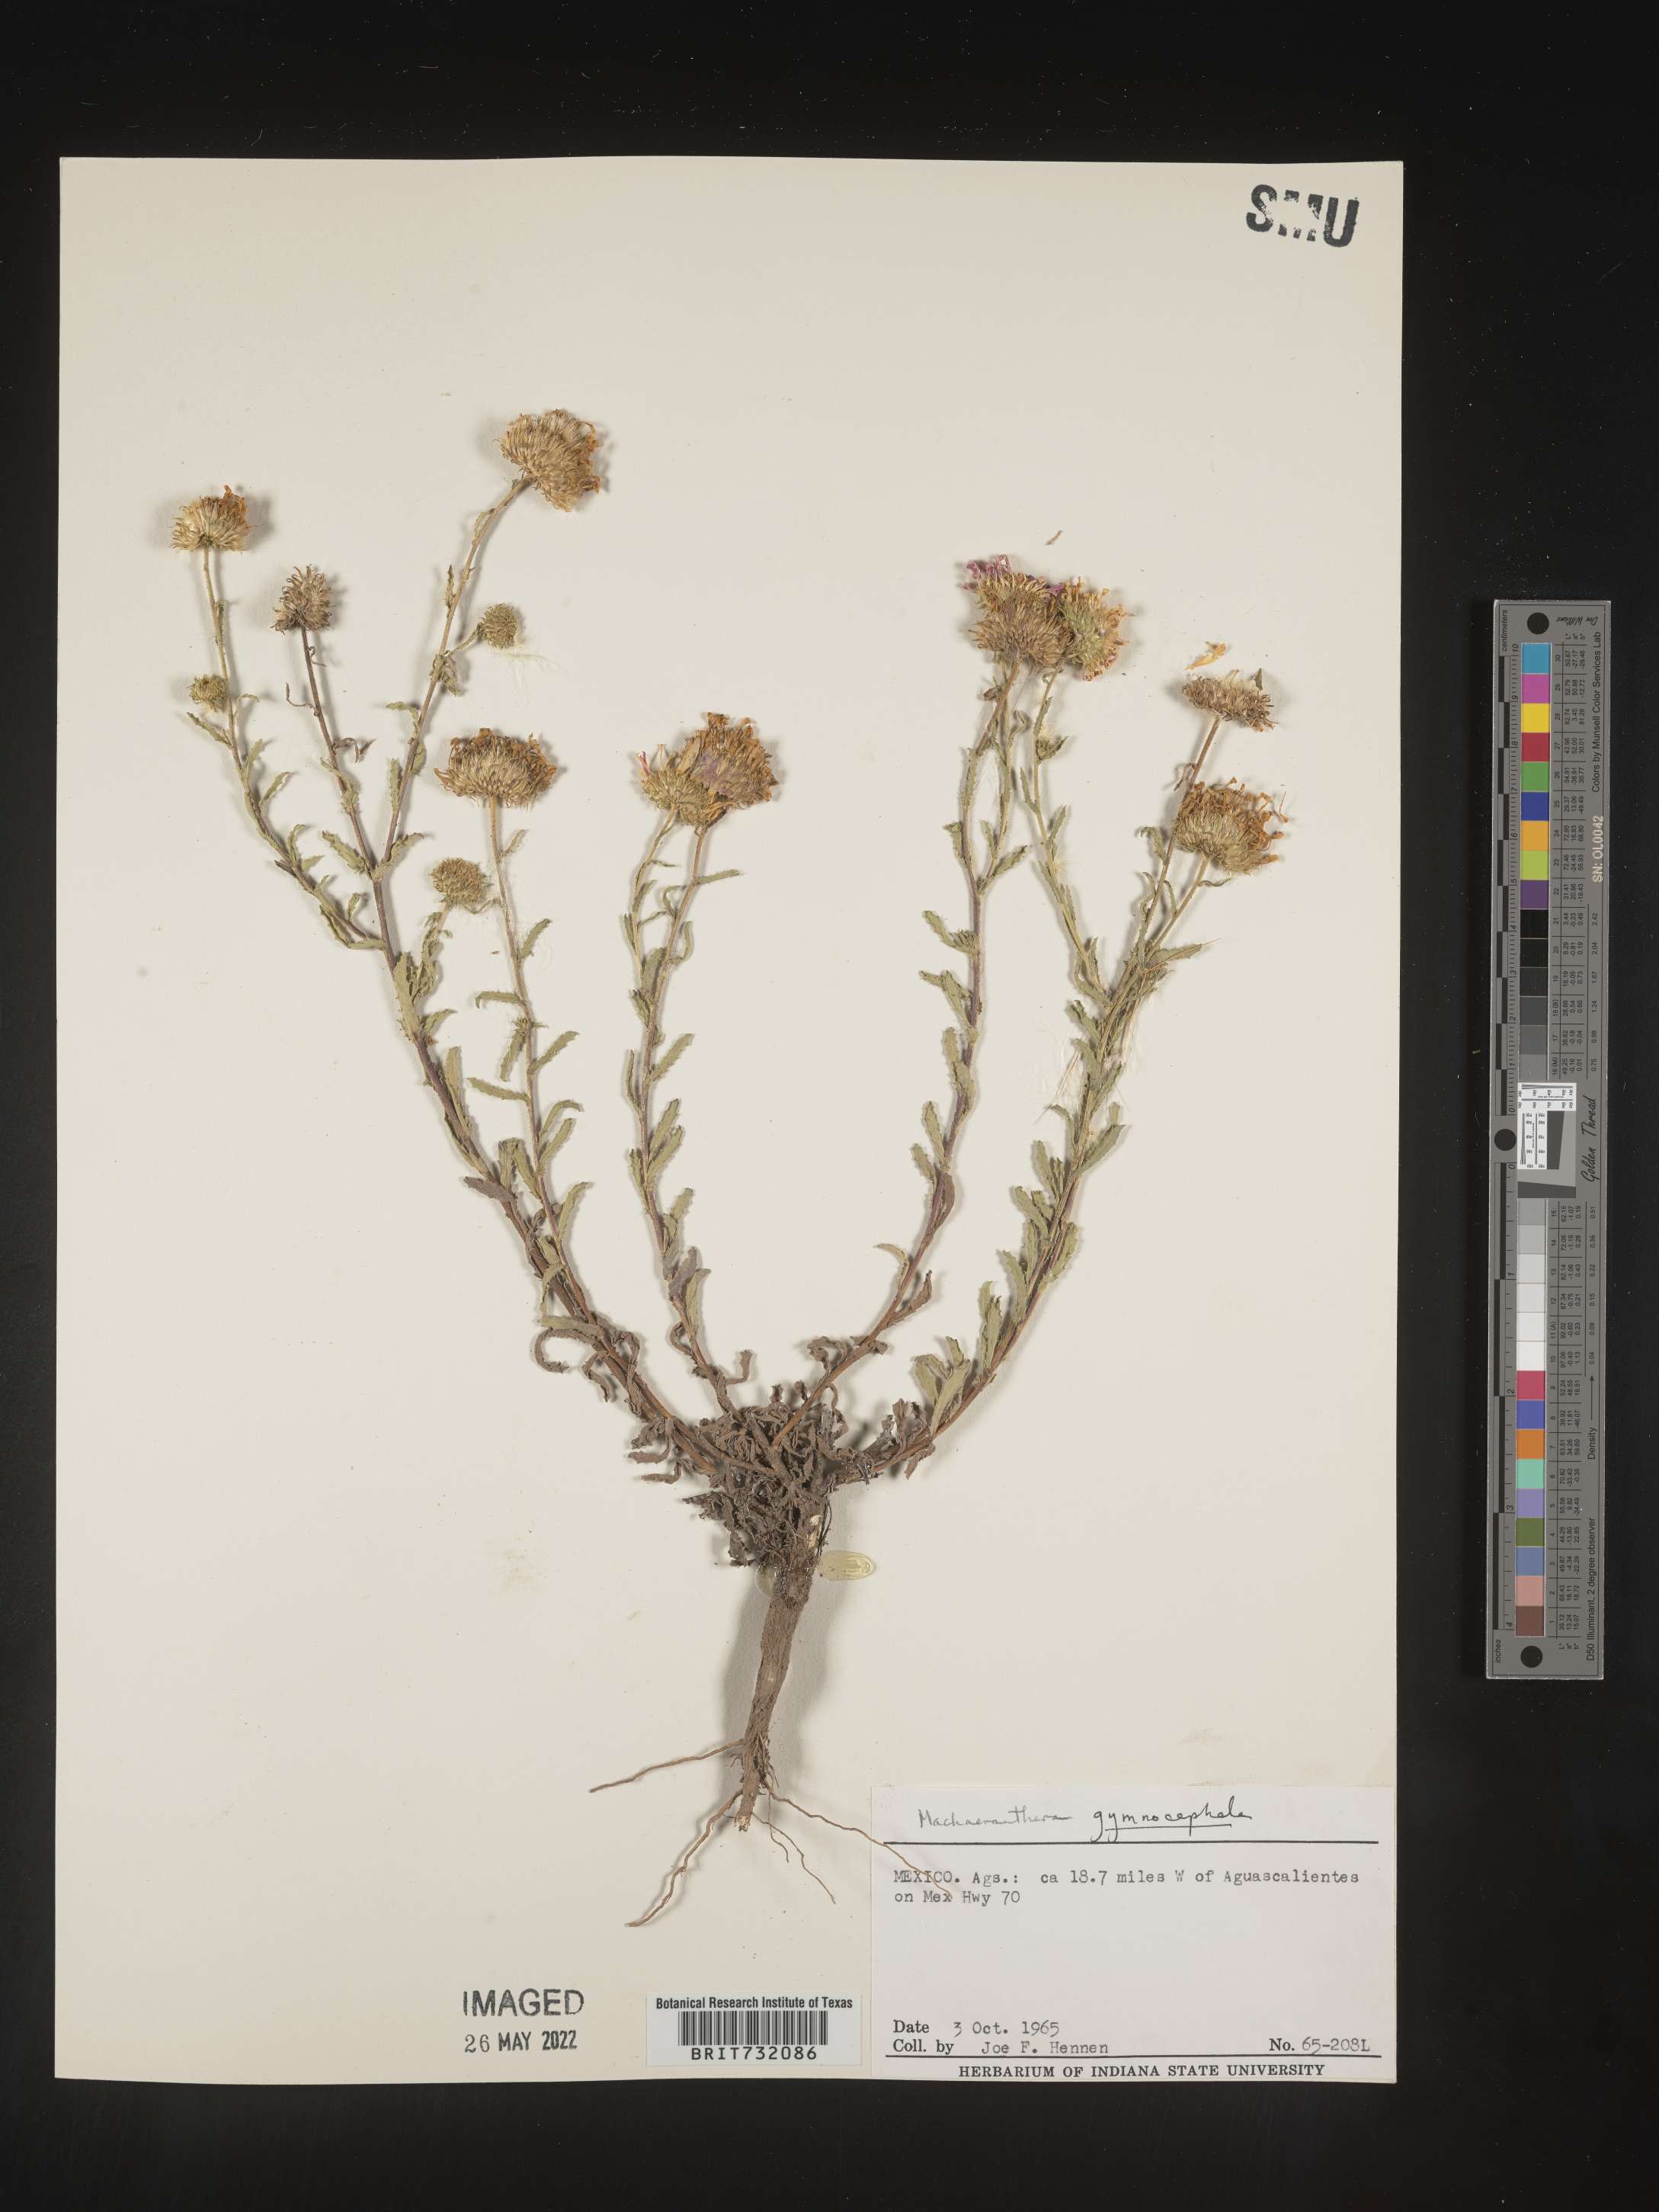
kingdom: Plantae
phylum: Tracheophyta
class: Magnoliopsida
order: Asterales
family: Asteraceae
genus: Xanthisma
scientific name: Xanthisma blephariphyllum
